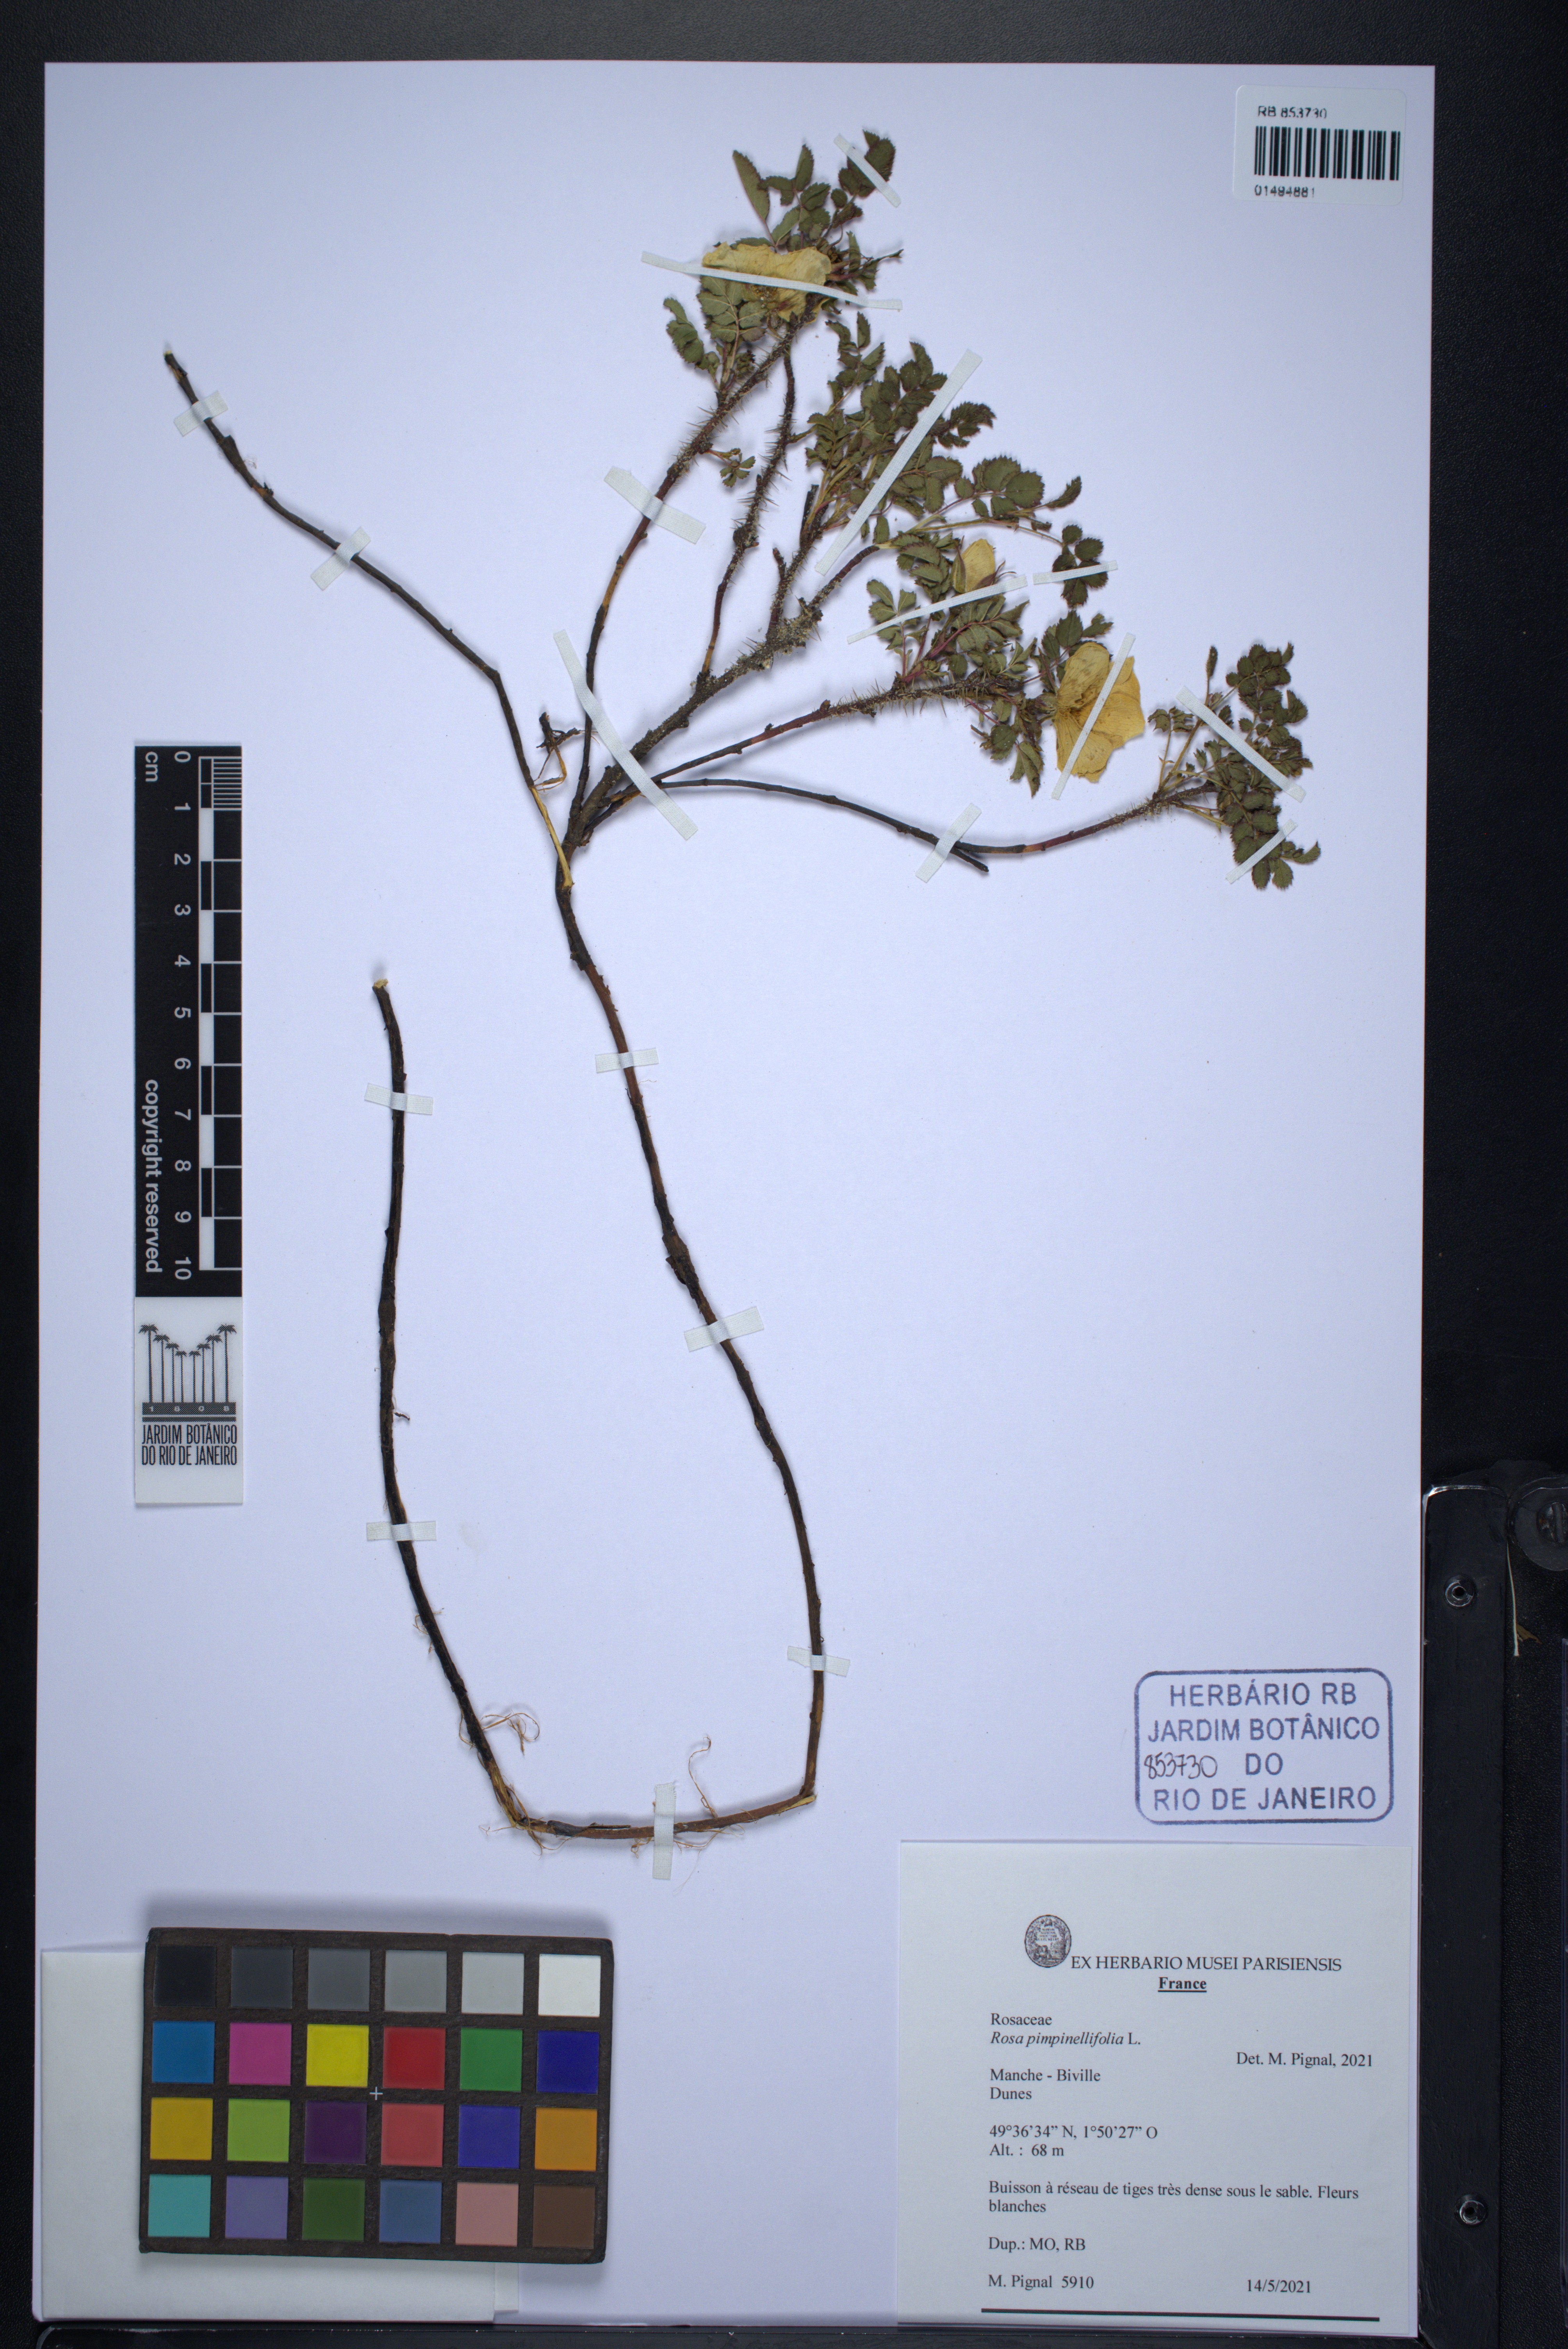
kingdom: Plantae
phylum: Tracheophyta
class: Magnoliopsida
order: Rosales
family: Rosaceae
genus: Rosa
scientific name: Rosa
